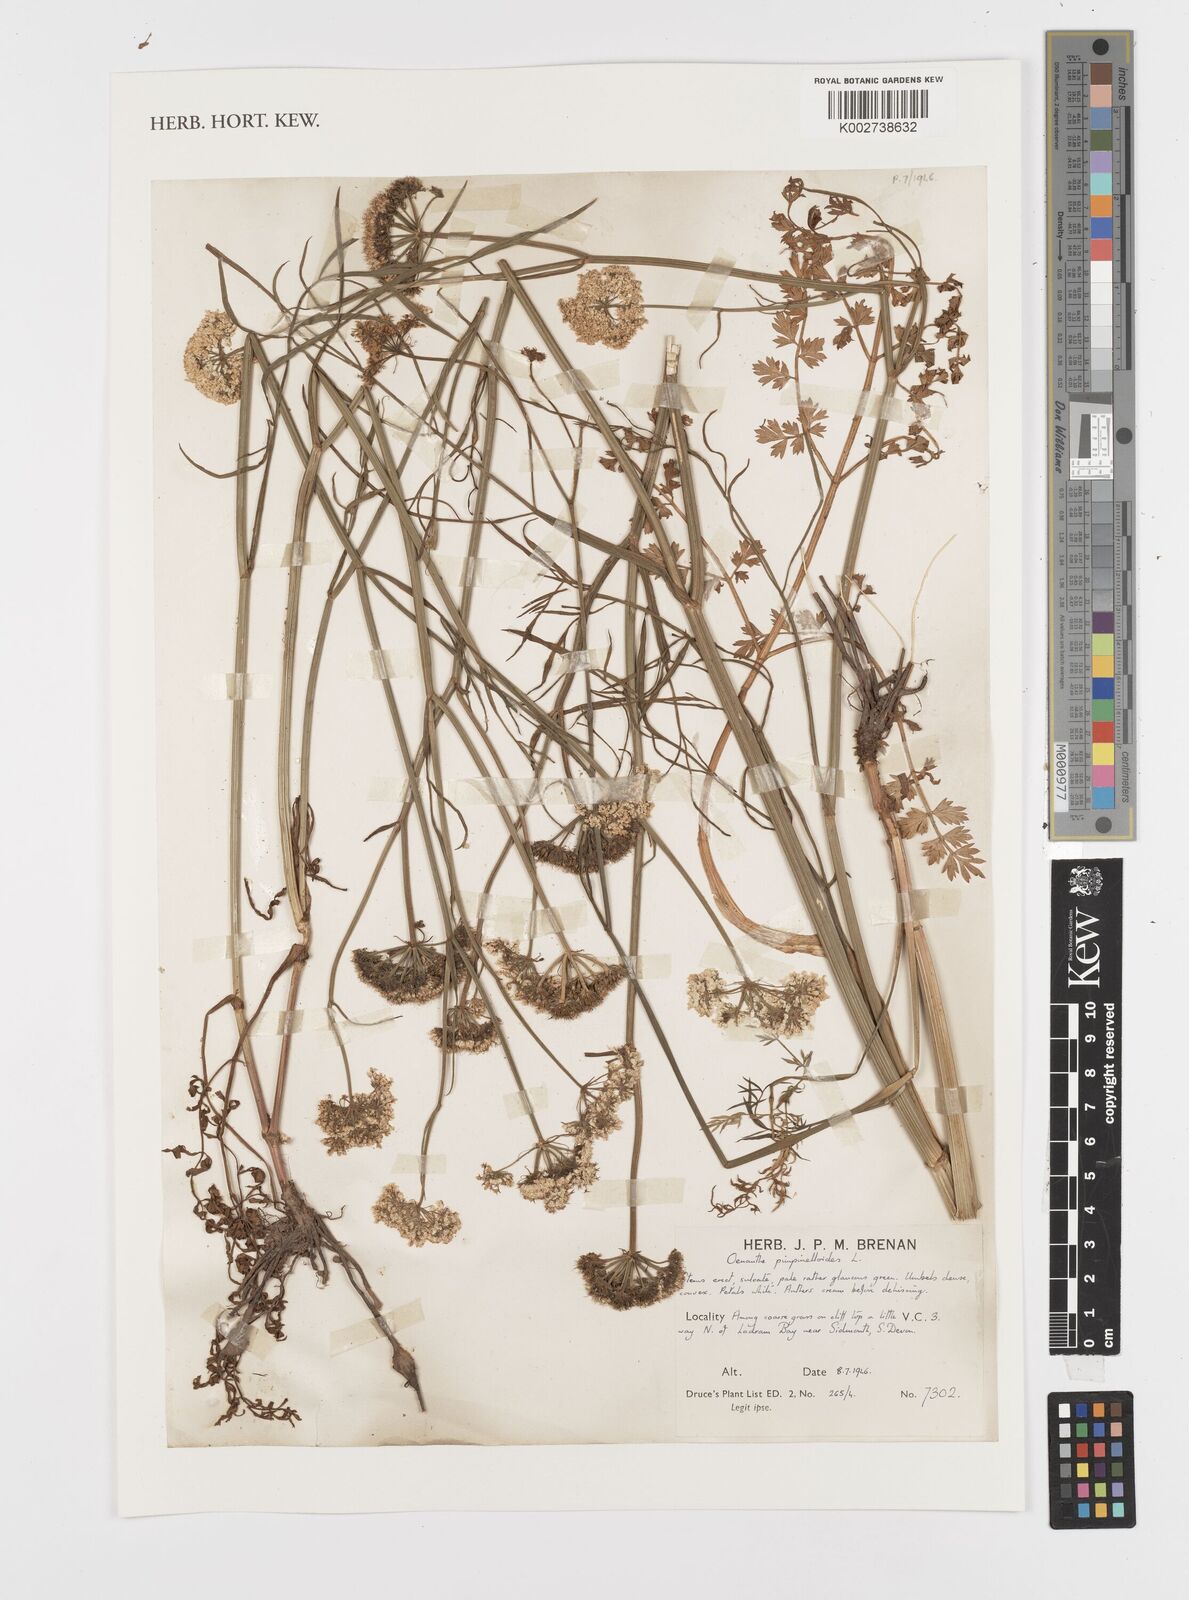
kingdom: Plantae
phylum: Tracheophyta
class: Magnoliopsida
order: Apiales
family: Apiaceae
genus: Oenanthe
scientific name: Oenanthe pimpinelloides
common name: Corky-fruited water-dropwort
